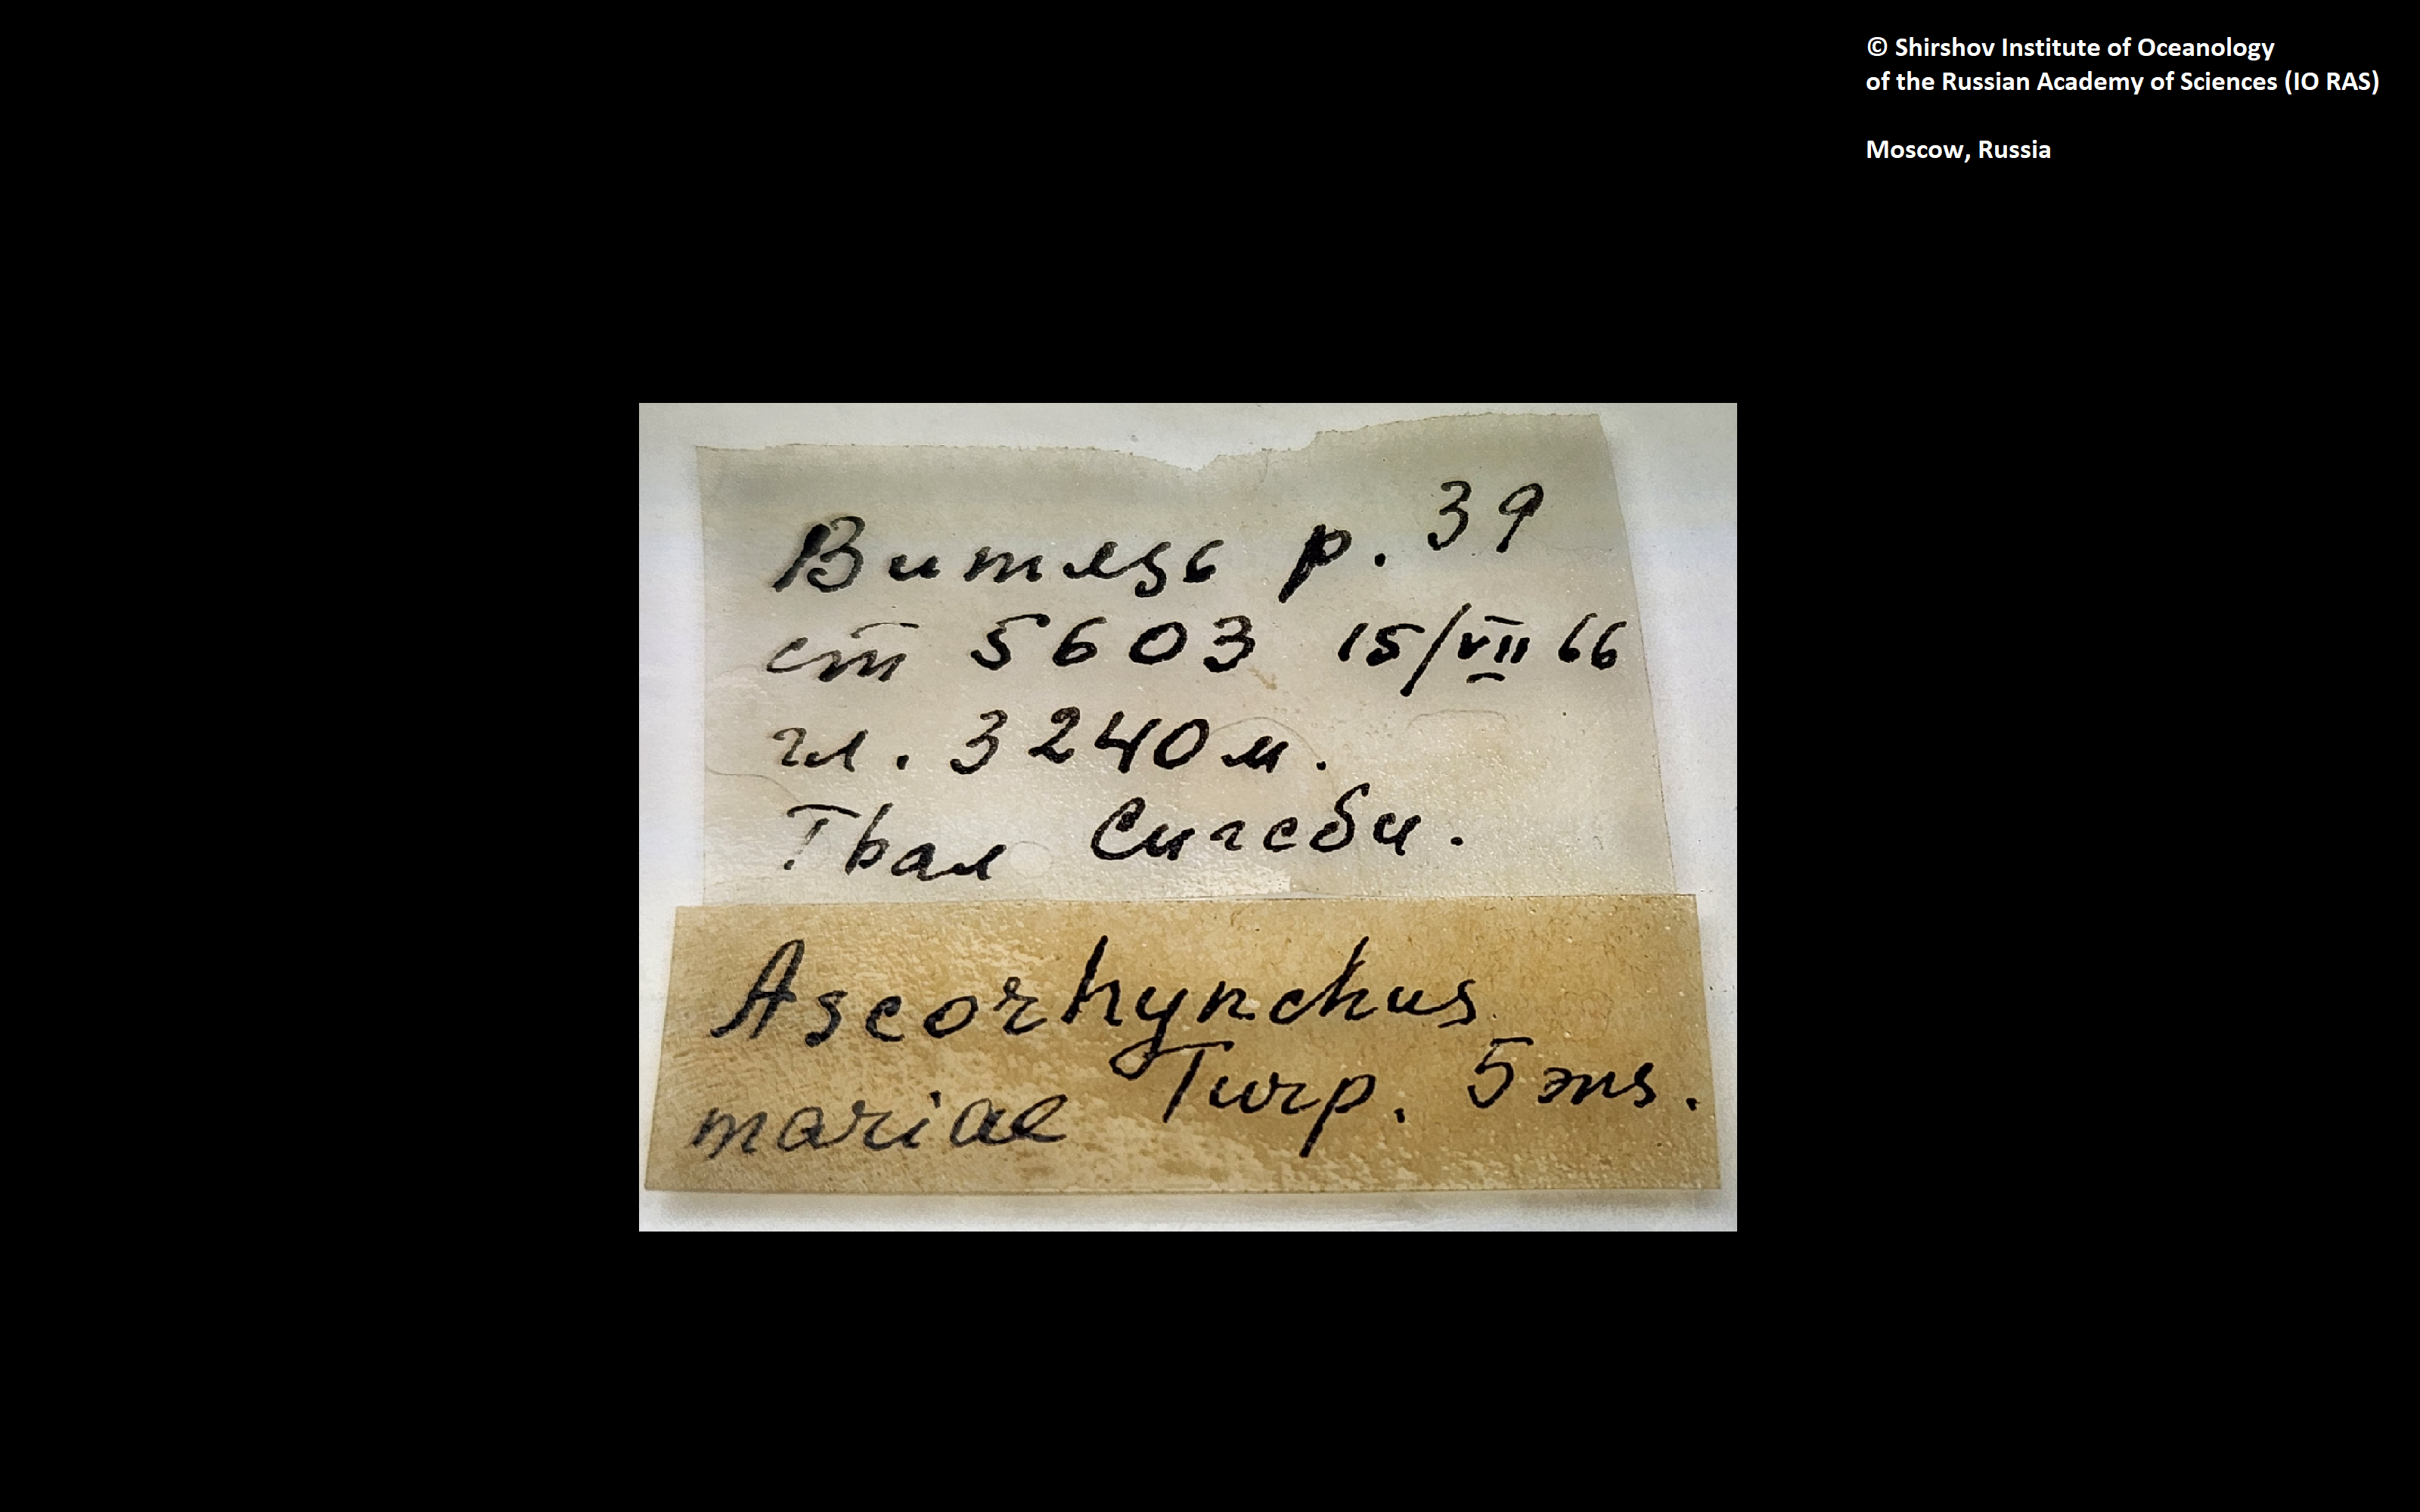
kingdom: Animalia
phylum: Arthropoda
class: Pycnogonida
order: Pantopoda
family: Ascorhynchidae
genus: Ascorhynchus
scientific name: Ascorhynchus mariae
